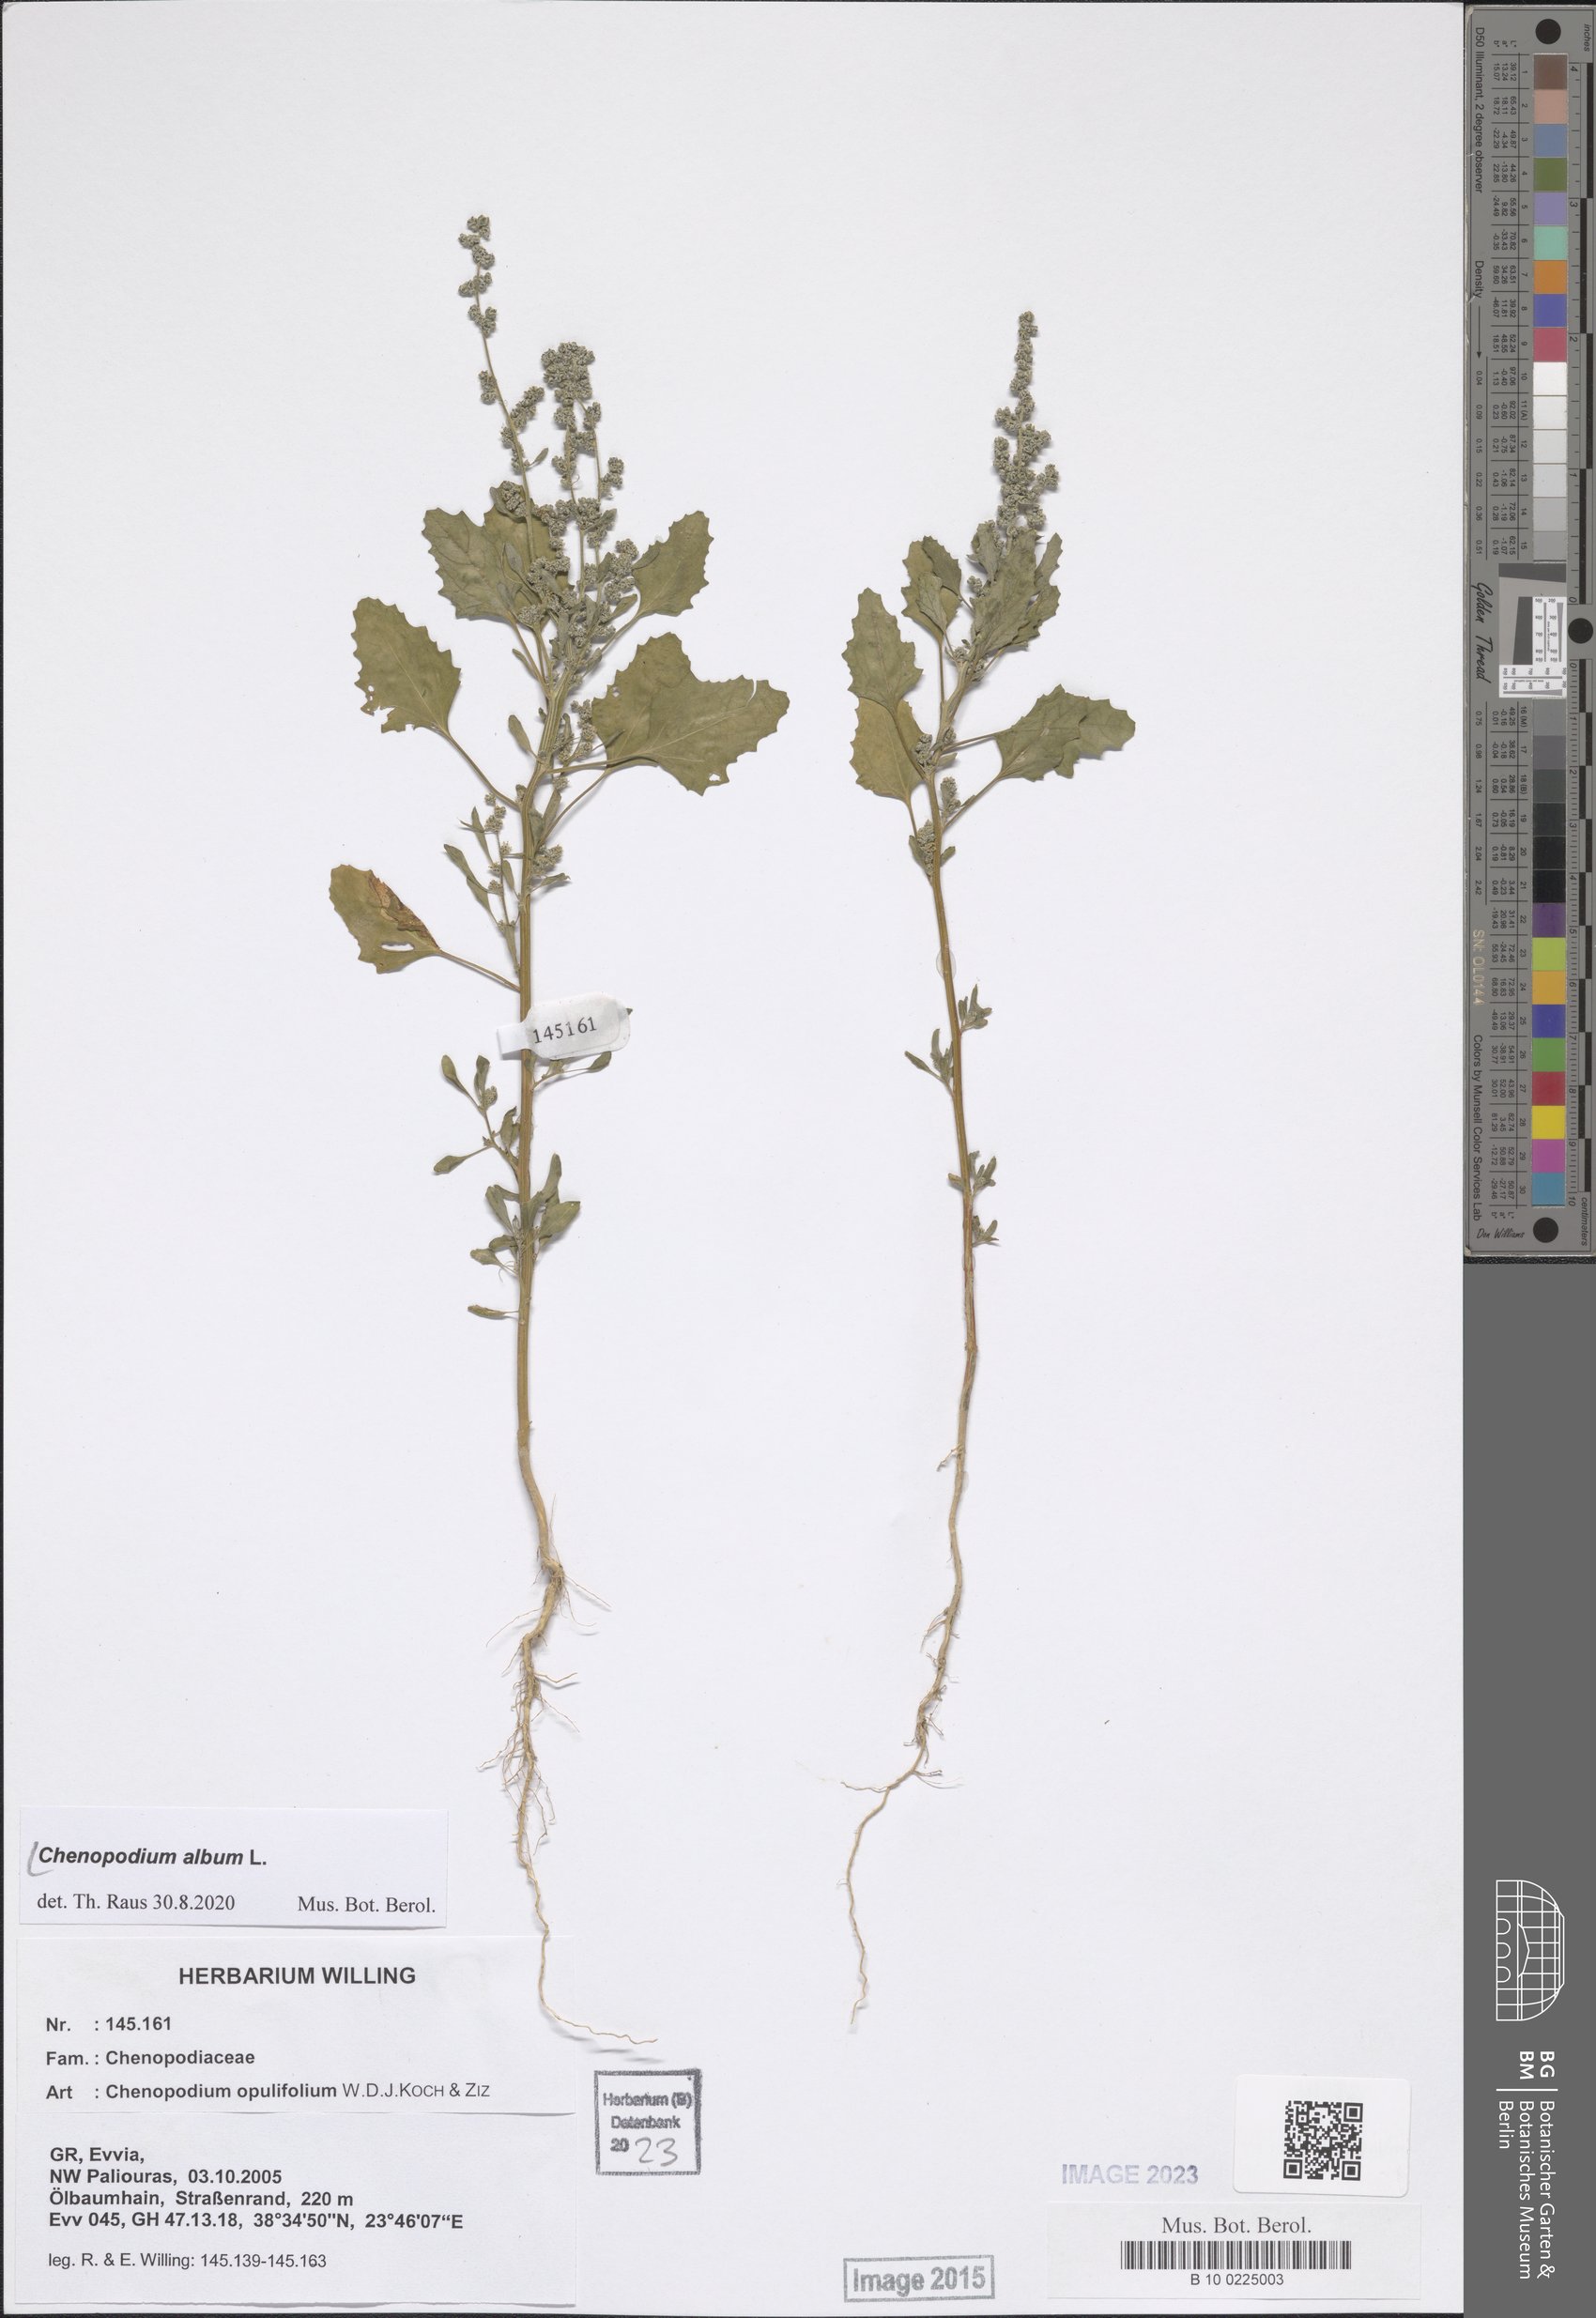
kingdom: Plantae
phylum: Tracheophyta
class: Magnoliopsida
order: Caryophyllales
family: Amaranthaceae
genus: Chenopodium
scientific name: Chenopodium album
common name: Fat-hen
